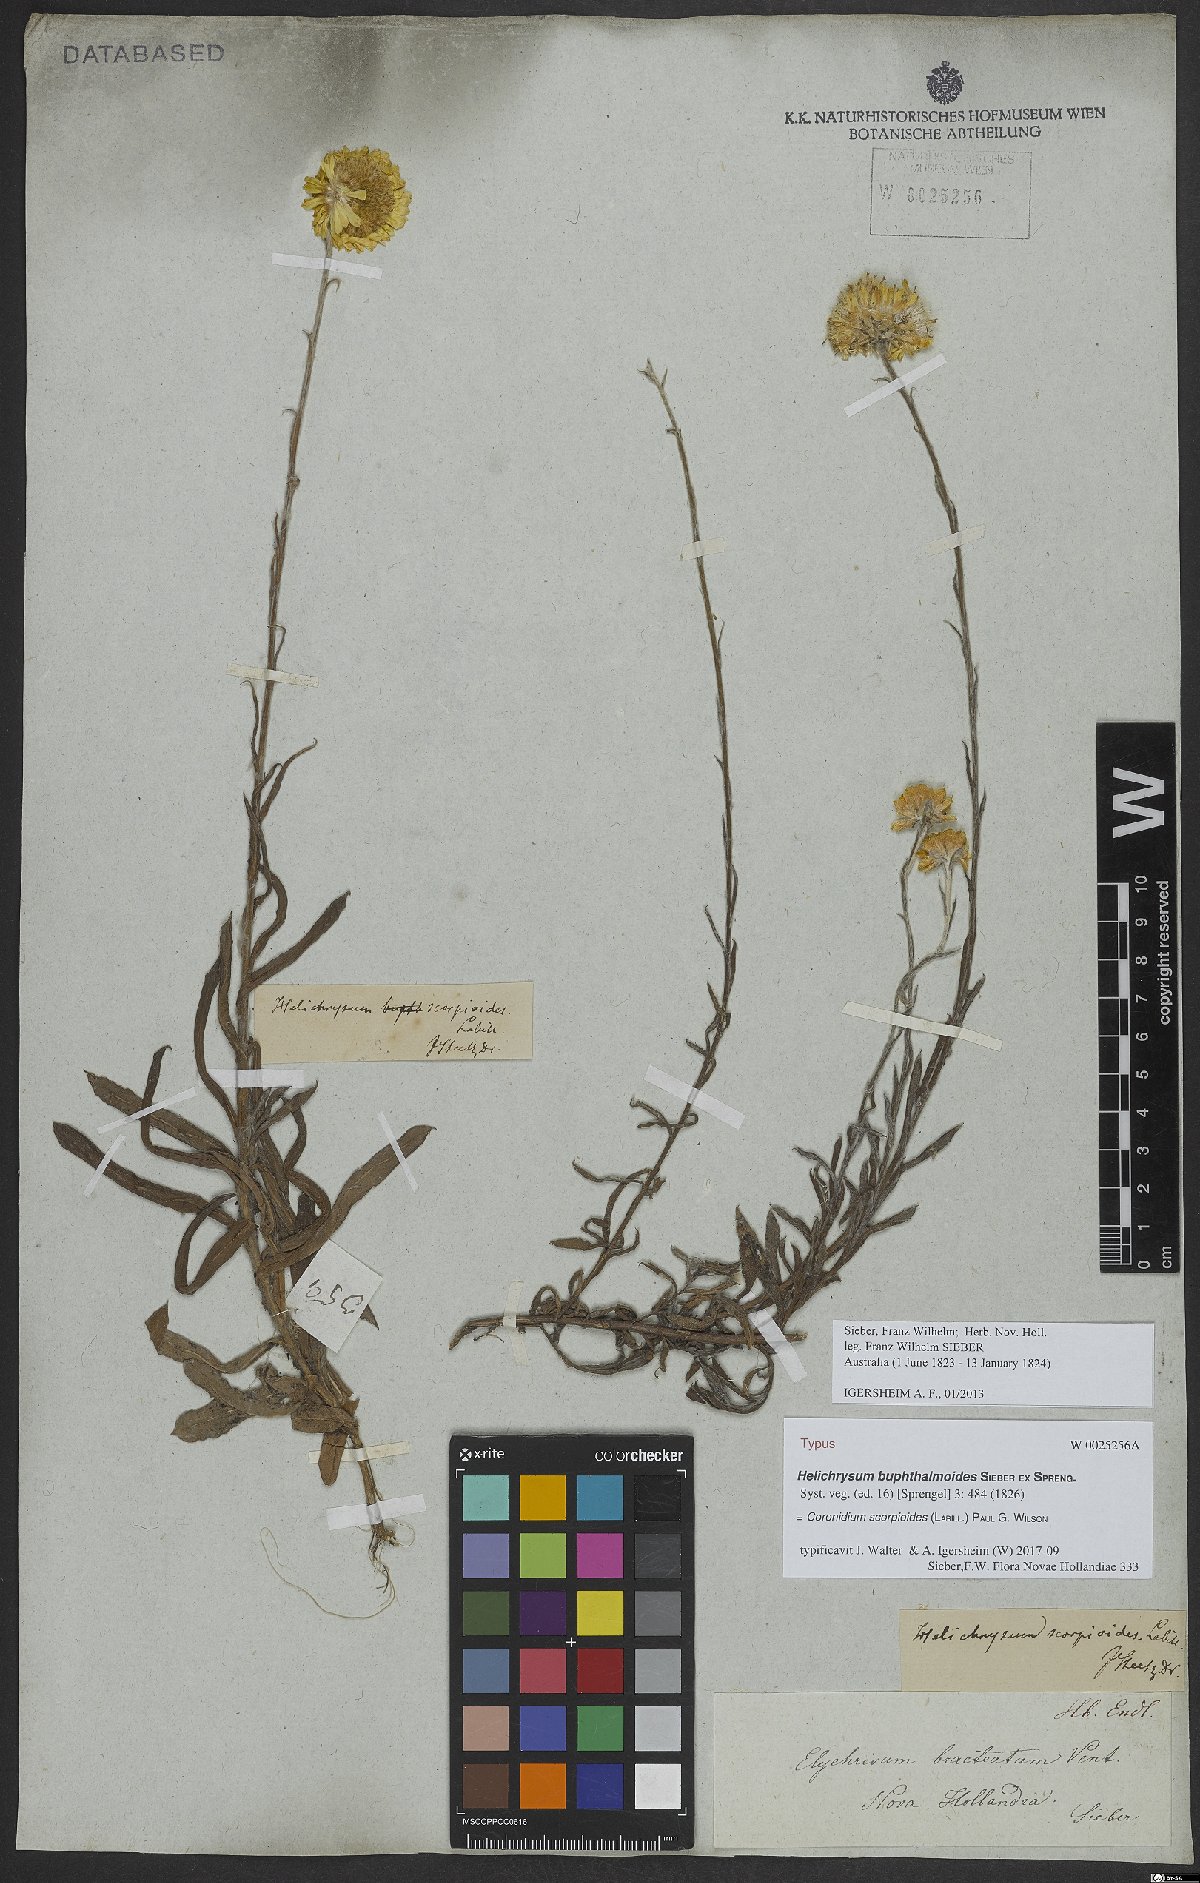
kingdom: Plantae
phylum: Tracheophyta
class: Magnoliopsida
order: Asterales
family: Asteraceae
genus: Coronidium
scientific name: Coronidium scorpioides
